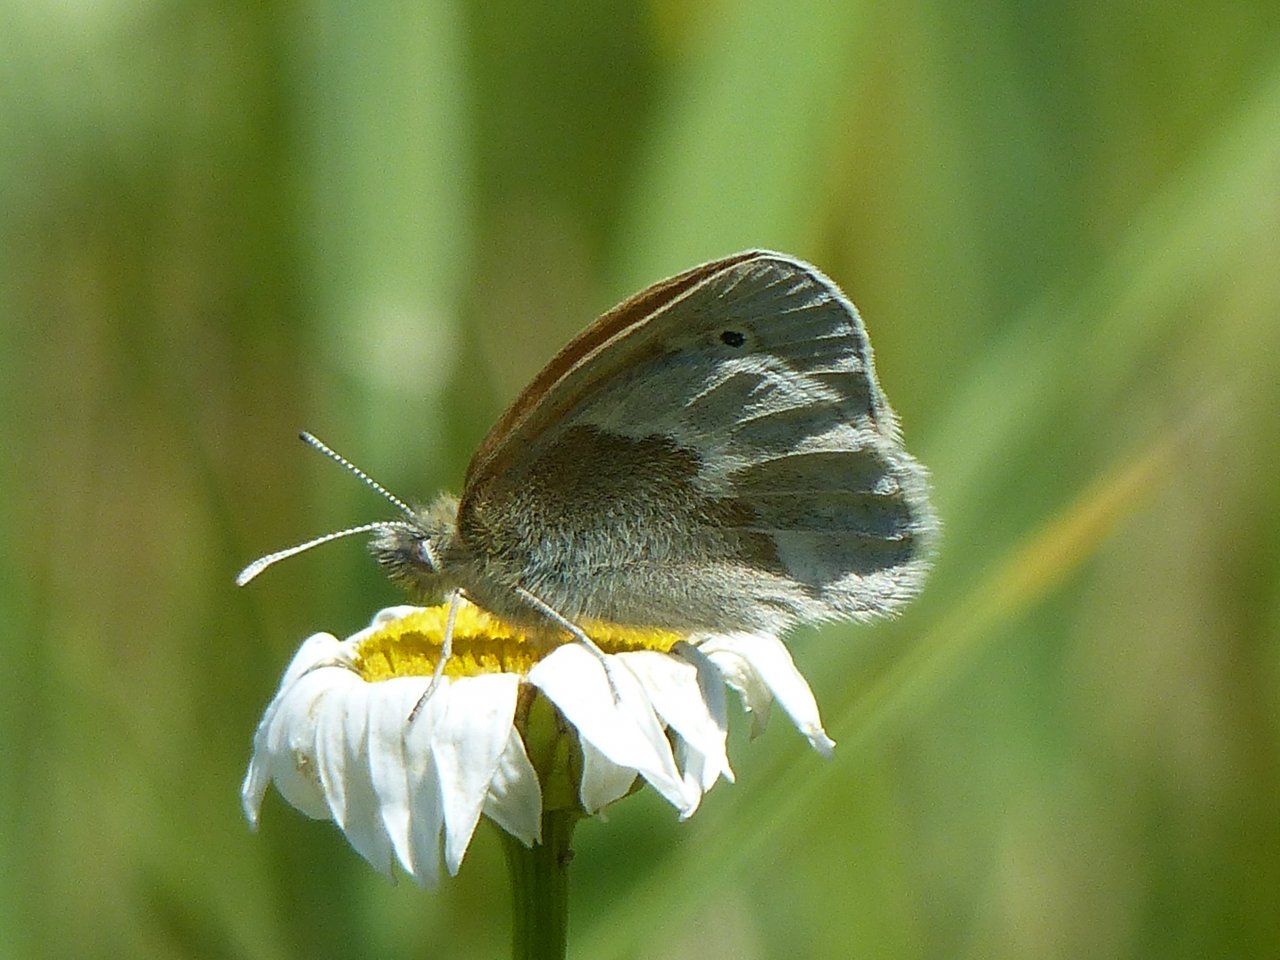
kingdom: Animalia
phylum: Arthropoda
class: Insecta
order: Lepidoptera
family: Nymphalidae
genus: Coenonympha
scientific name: Coenonympha tullia
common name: Large Heath
